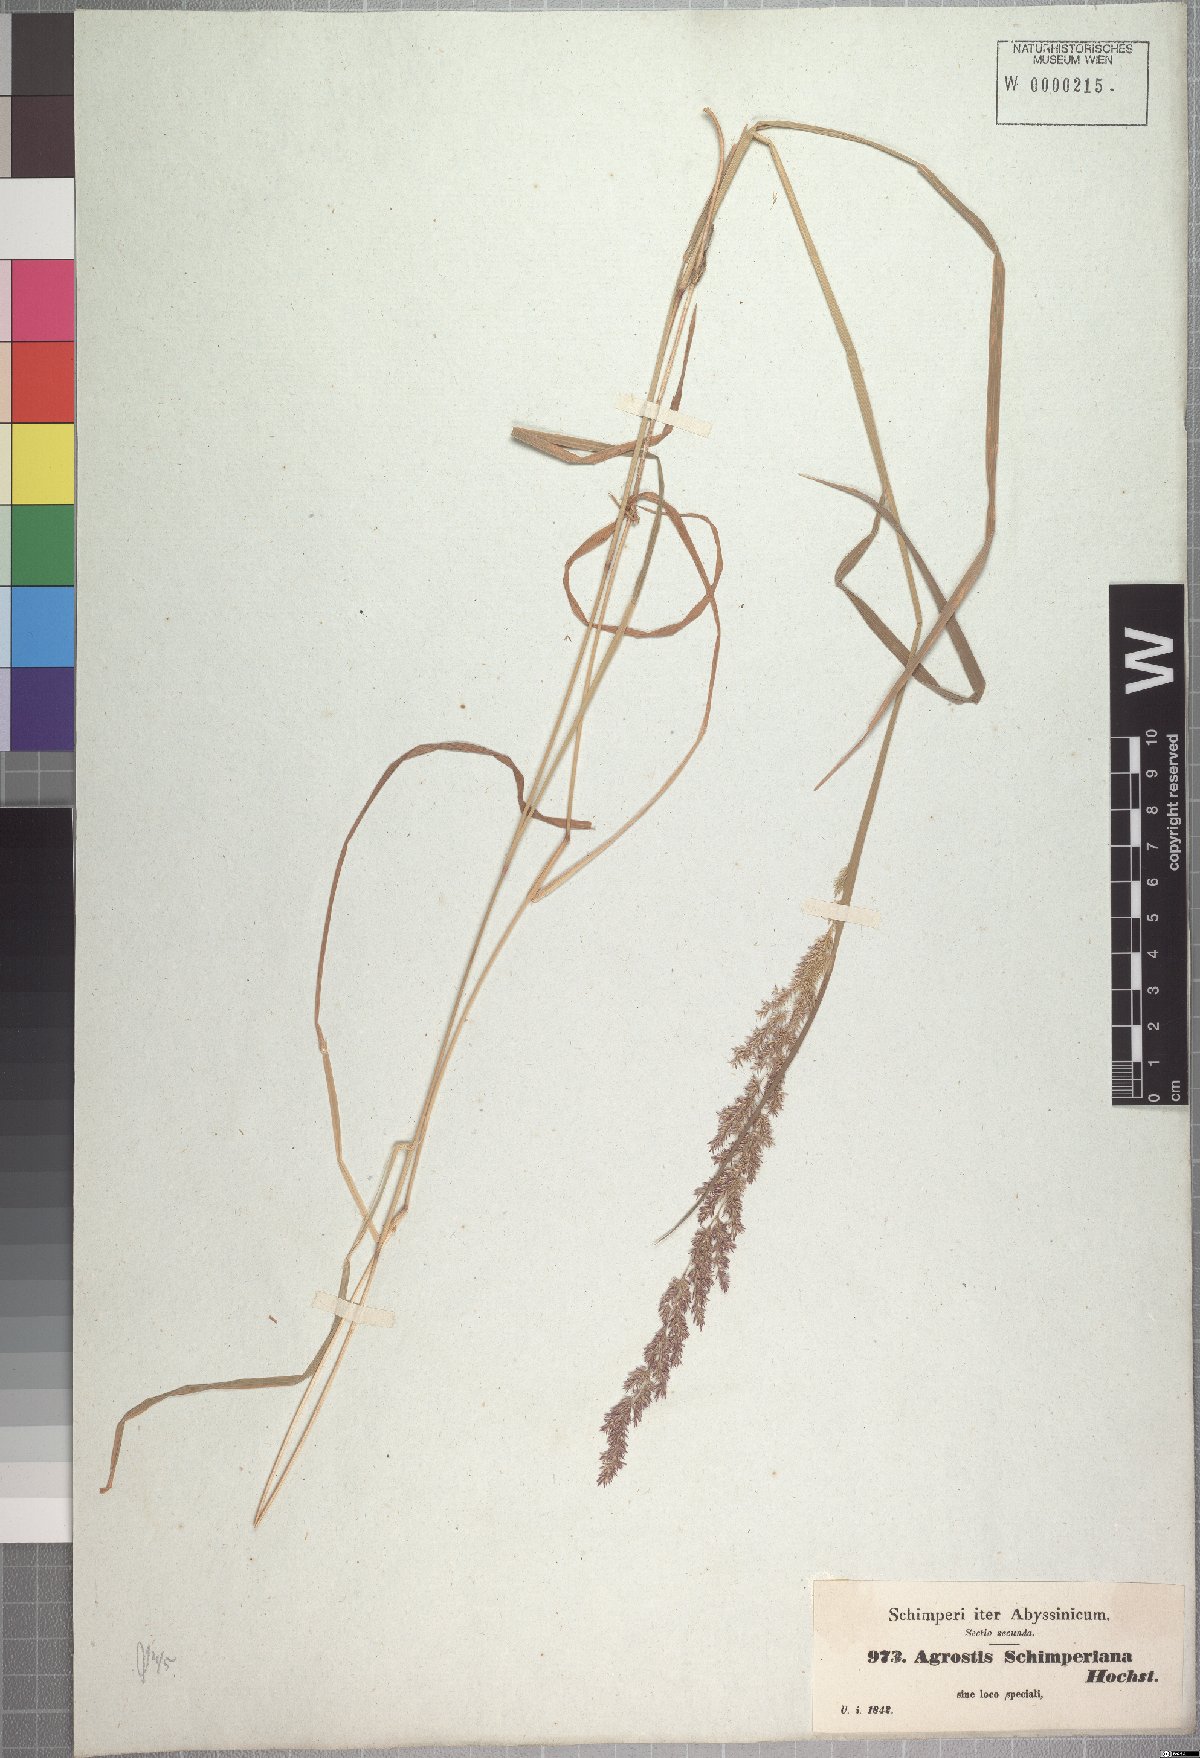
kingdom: Plantae
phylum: Tracheophyta
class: Liliopsida
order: Poales
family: Poaceae
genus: Polypogon
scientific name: Polypogon schimperianus
